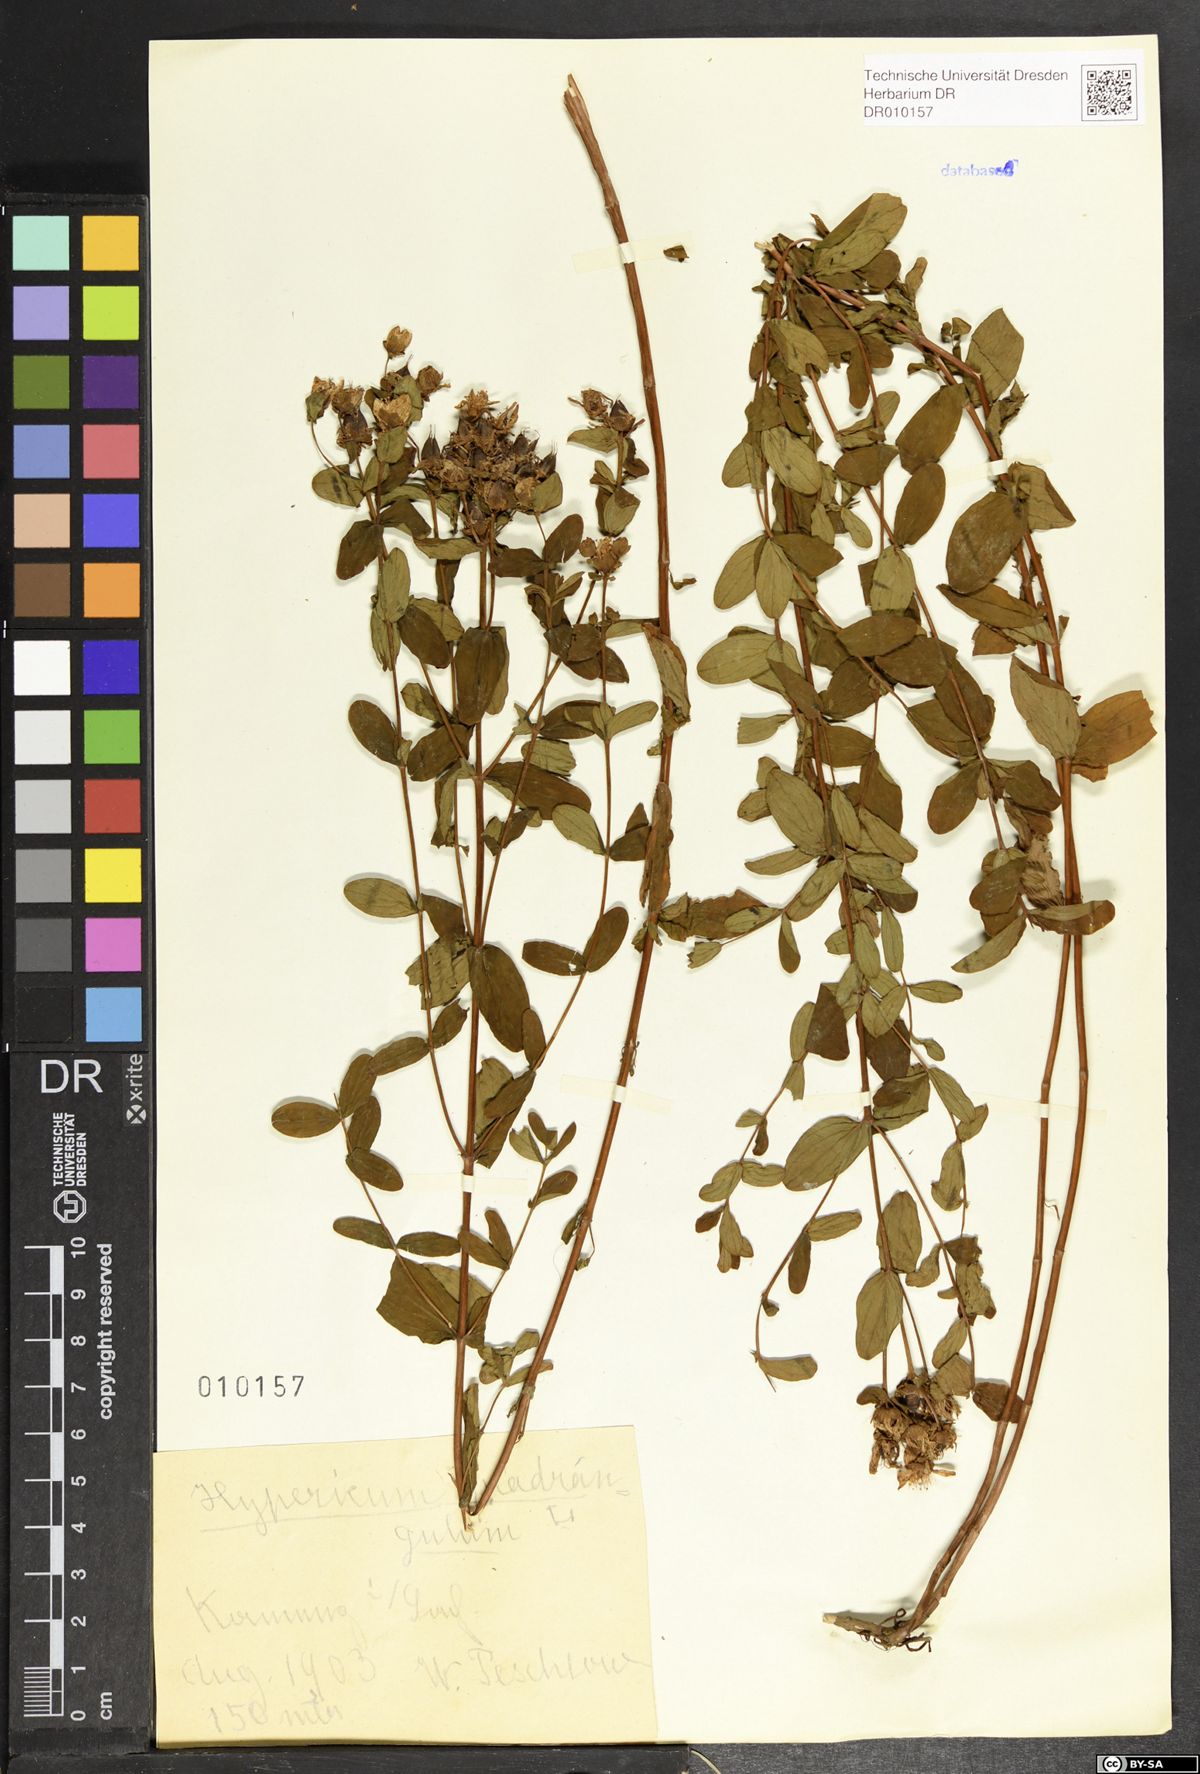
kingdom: Plantae
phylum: Tracheophyta
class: Magnoliopsida
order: Malpighiales
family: Hypericaceae
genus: Hypericum
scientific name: Hypericum maculatum
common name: Imperforate st. john's-wort
